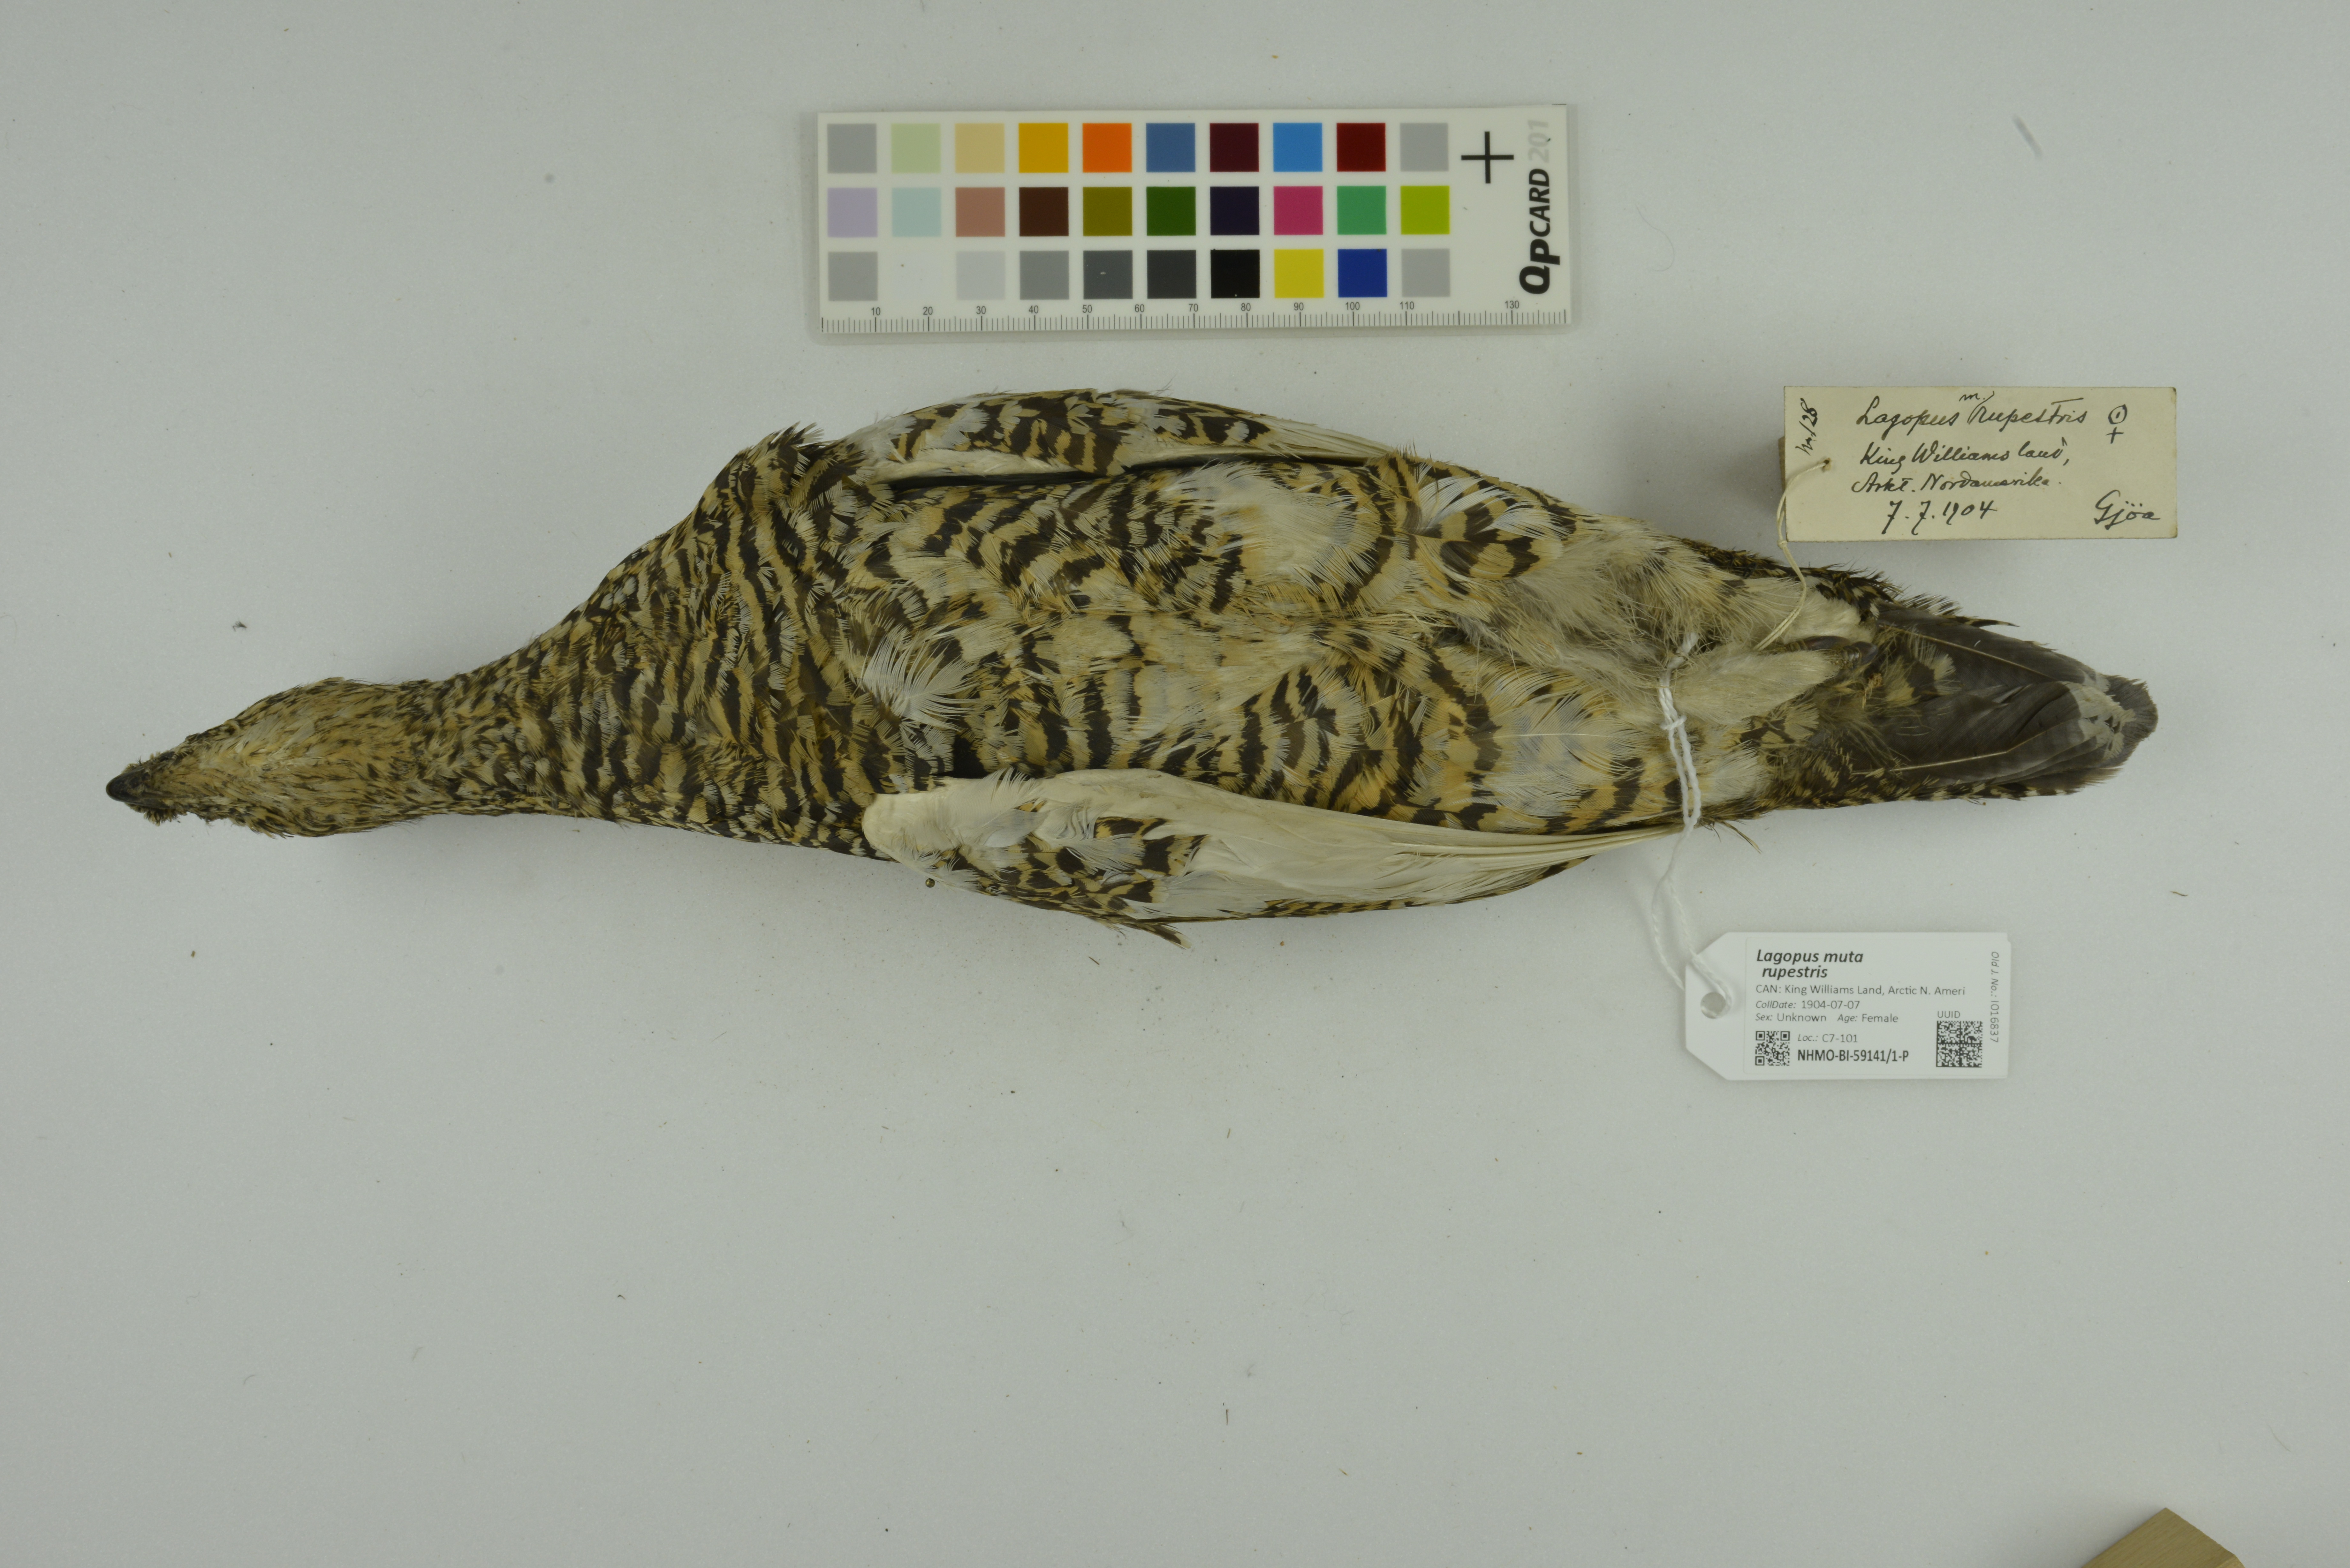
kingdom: Animalia
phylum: Chordata
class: Aves
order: Galliformes
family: Phasianidae
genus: Lagopus
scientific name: Lagopus muta
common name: Rock ptarmigan
